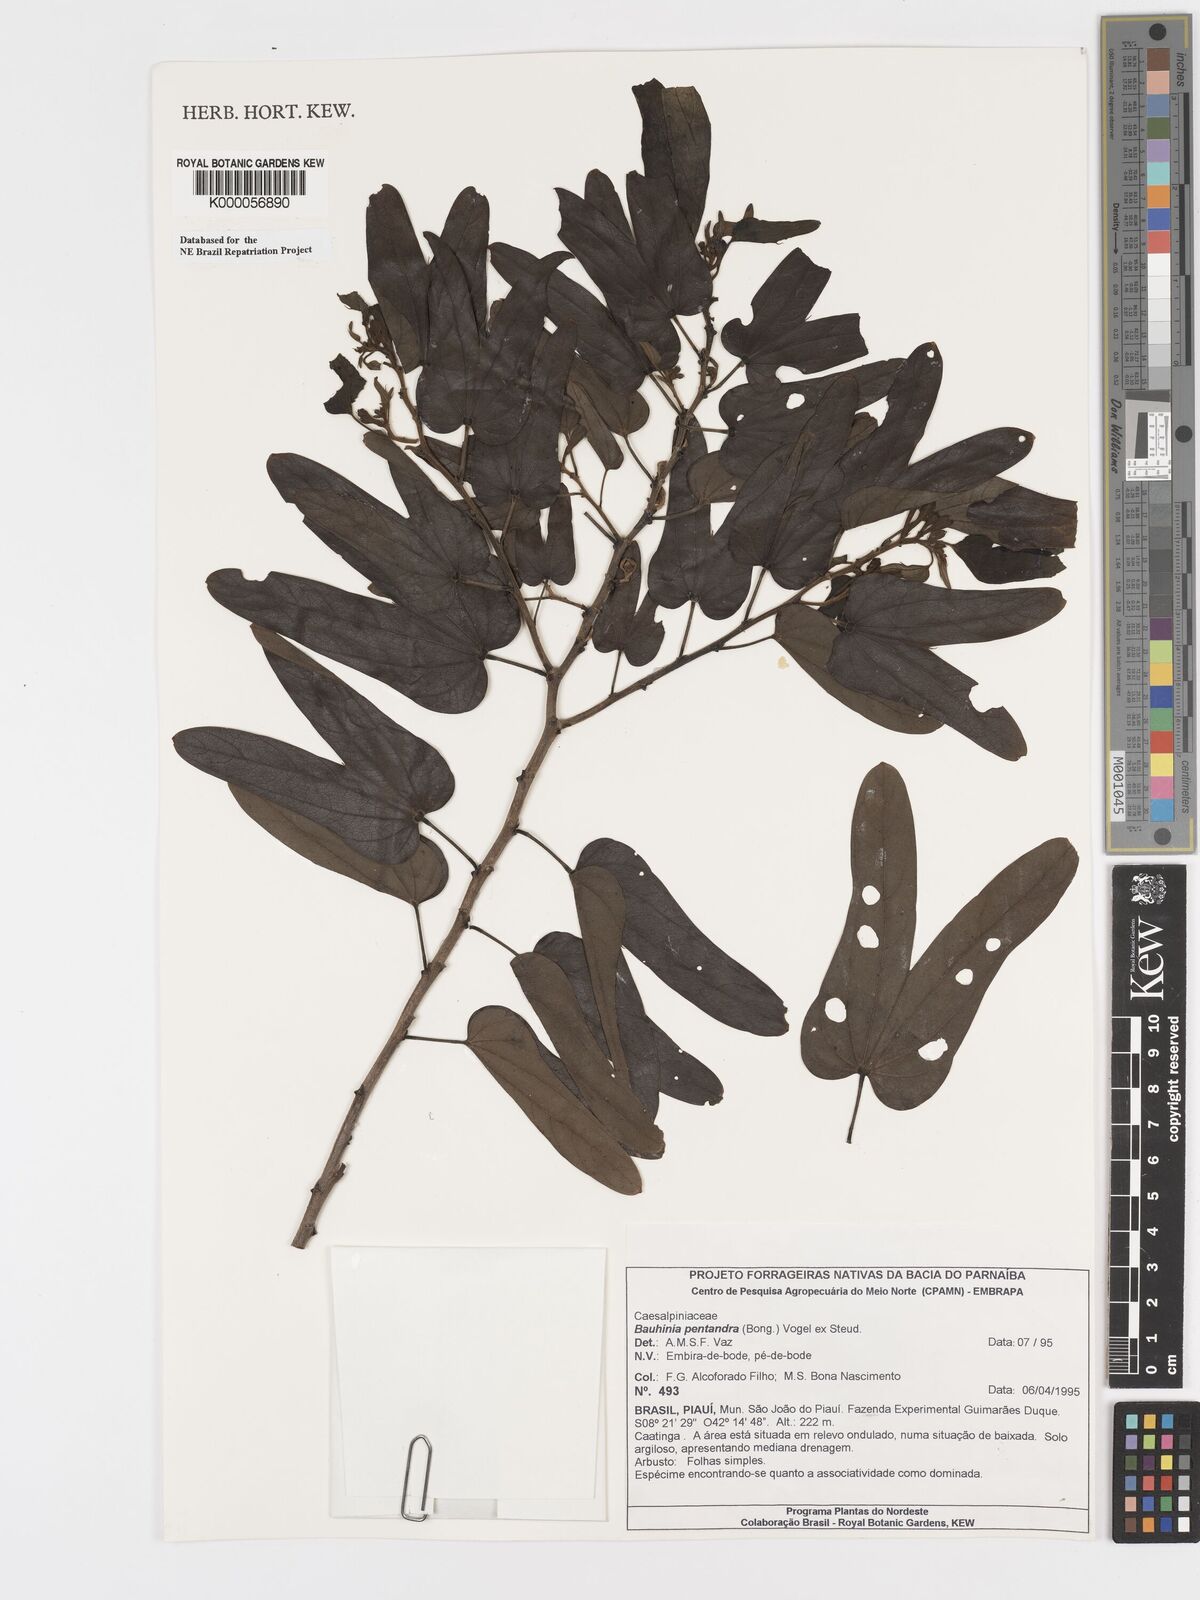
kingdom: Plantae
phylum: Tracheophyta
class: Magnoliopsida
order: Fabales
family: Fabaceae
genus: Bauhinia
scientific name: Bauhinia
